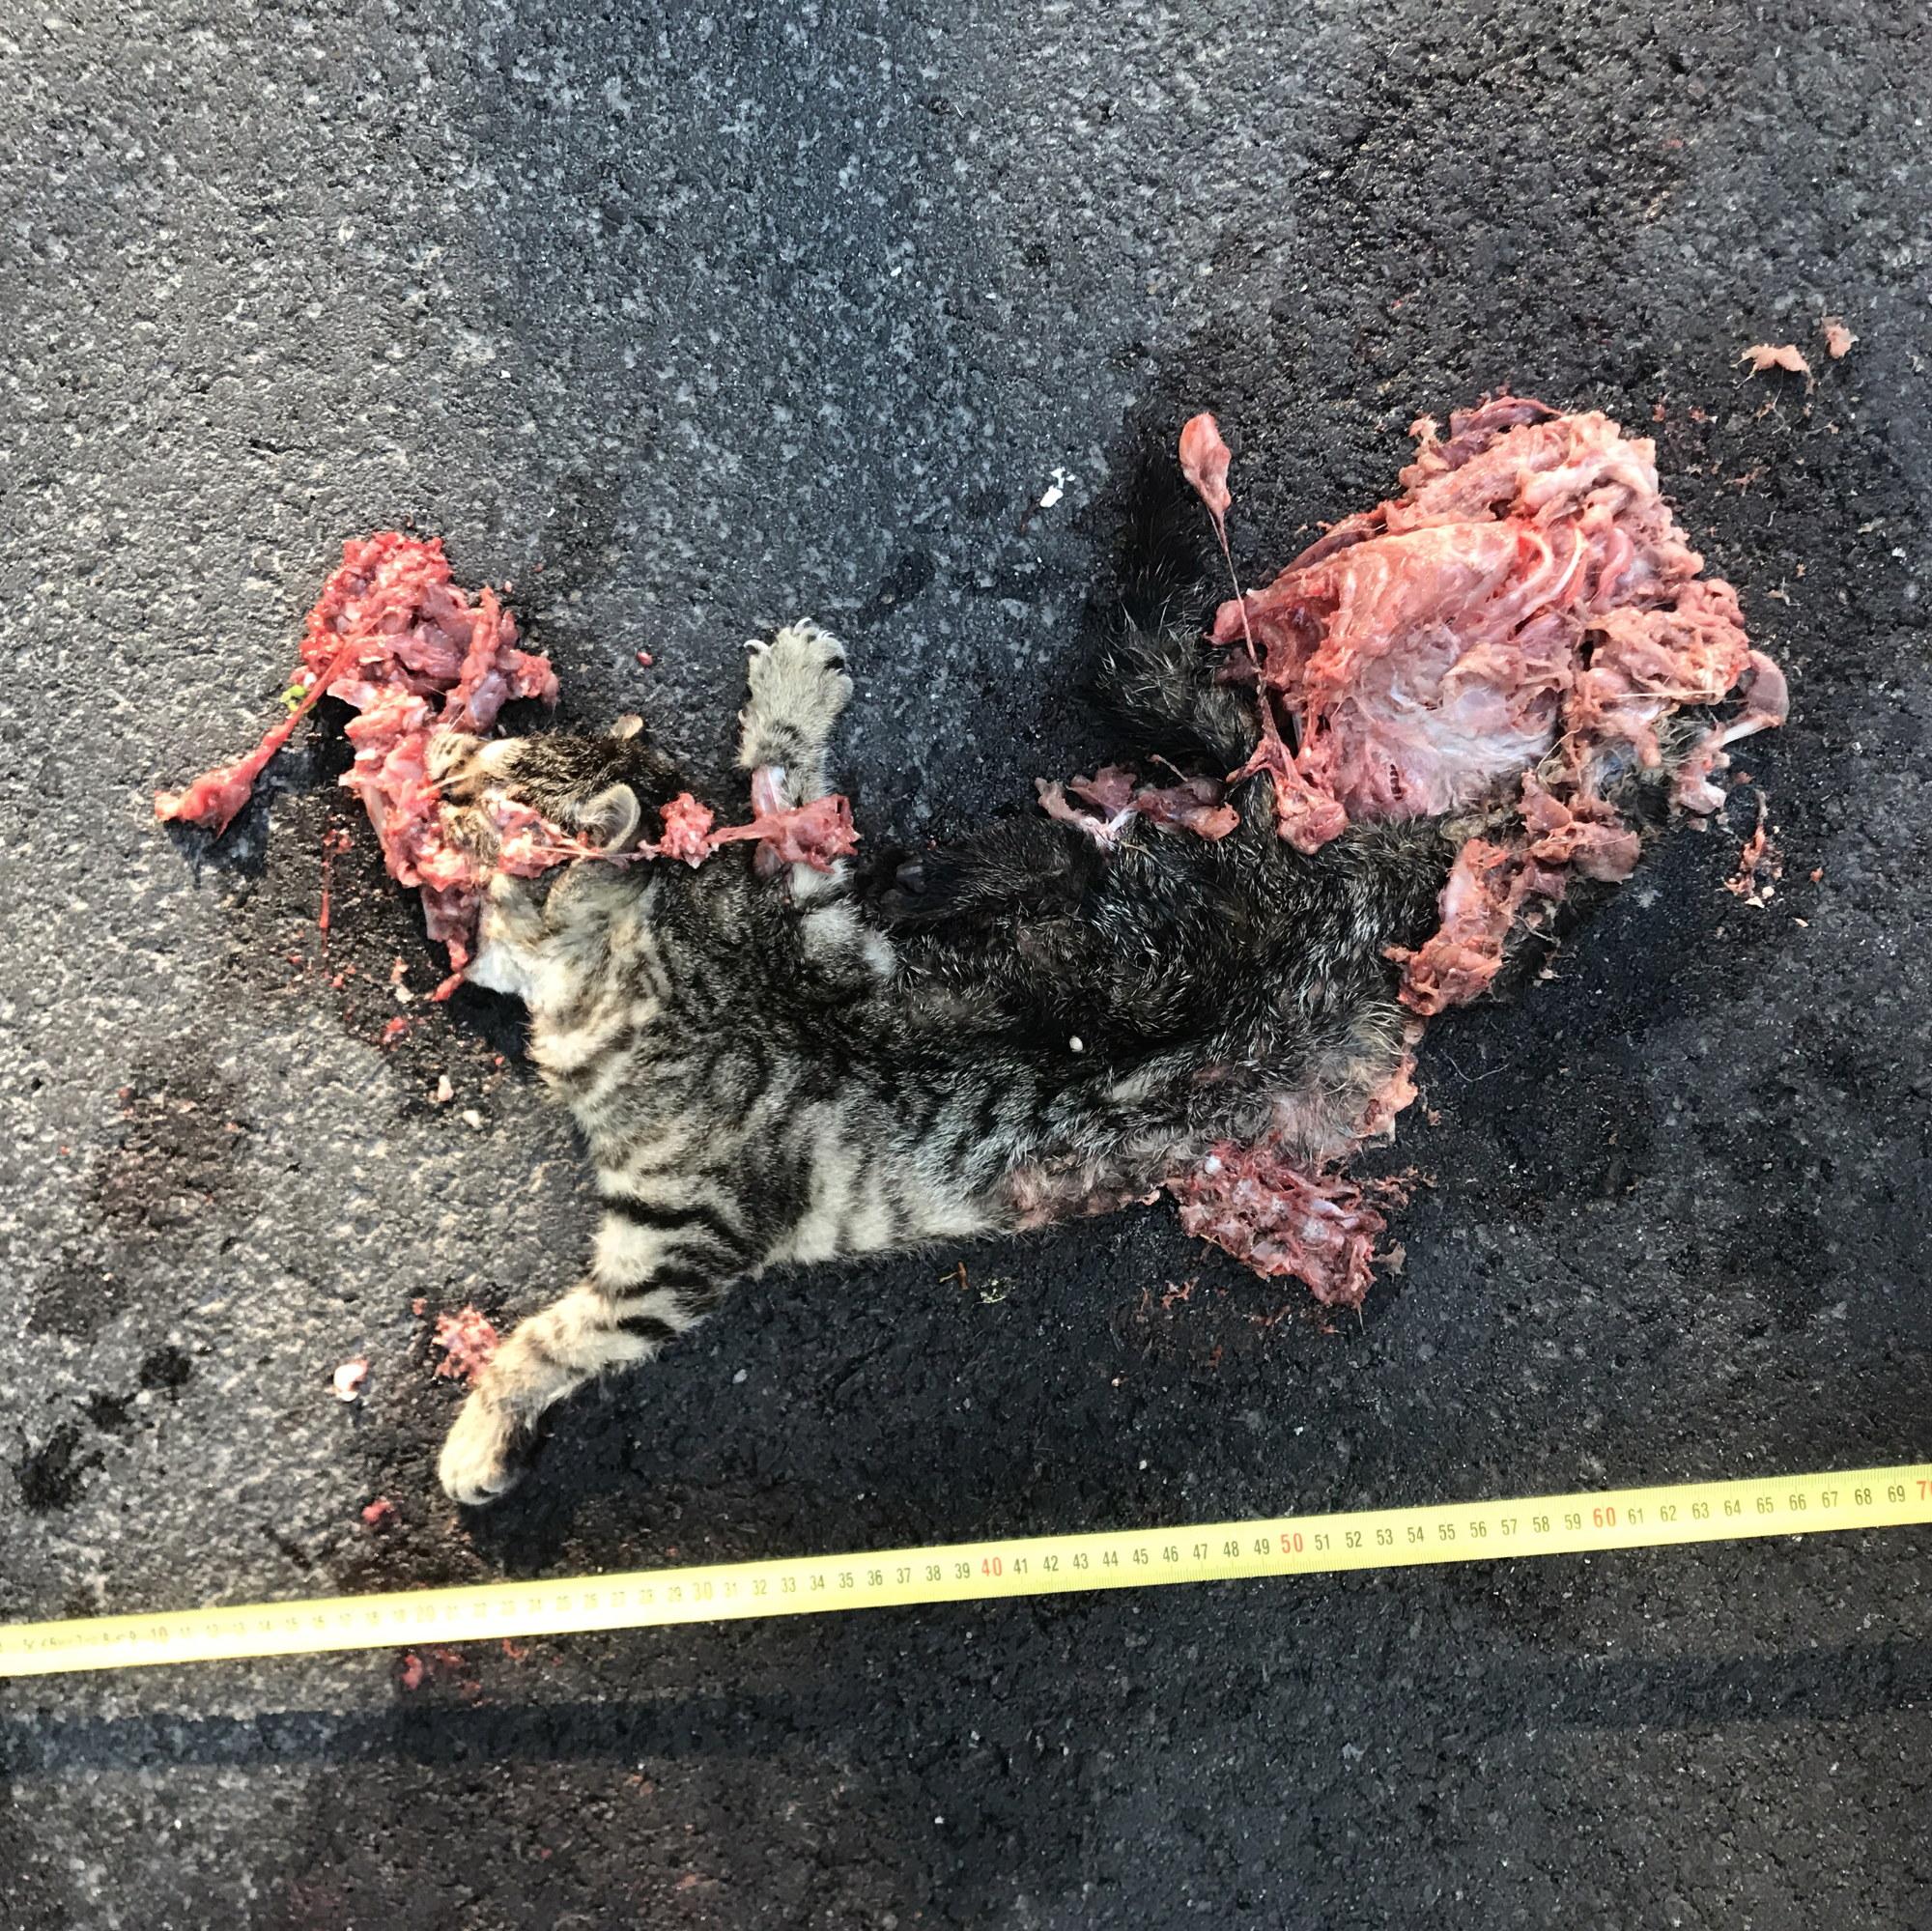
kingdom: Animalia
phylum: Chordata
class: Mammalia
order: Carnivora
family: Felidae
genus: Felis
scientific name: Felis catus
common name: Domestic cat
